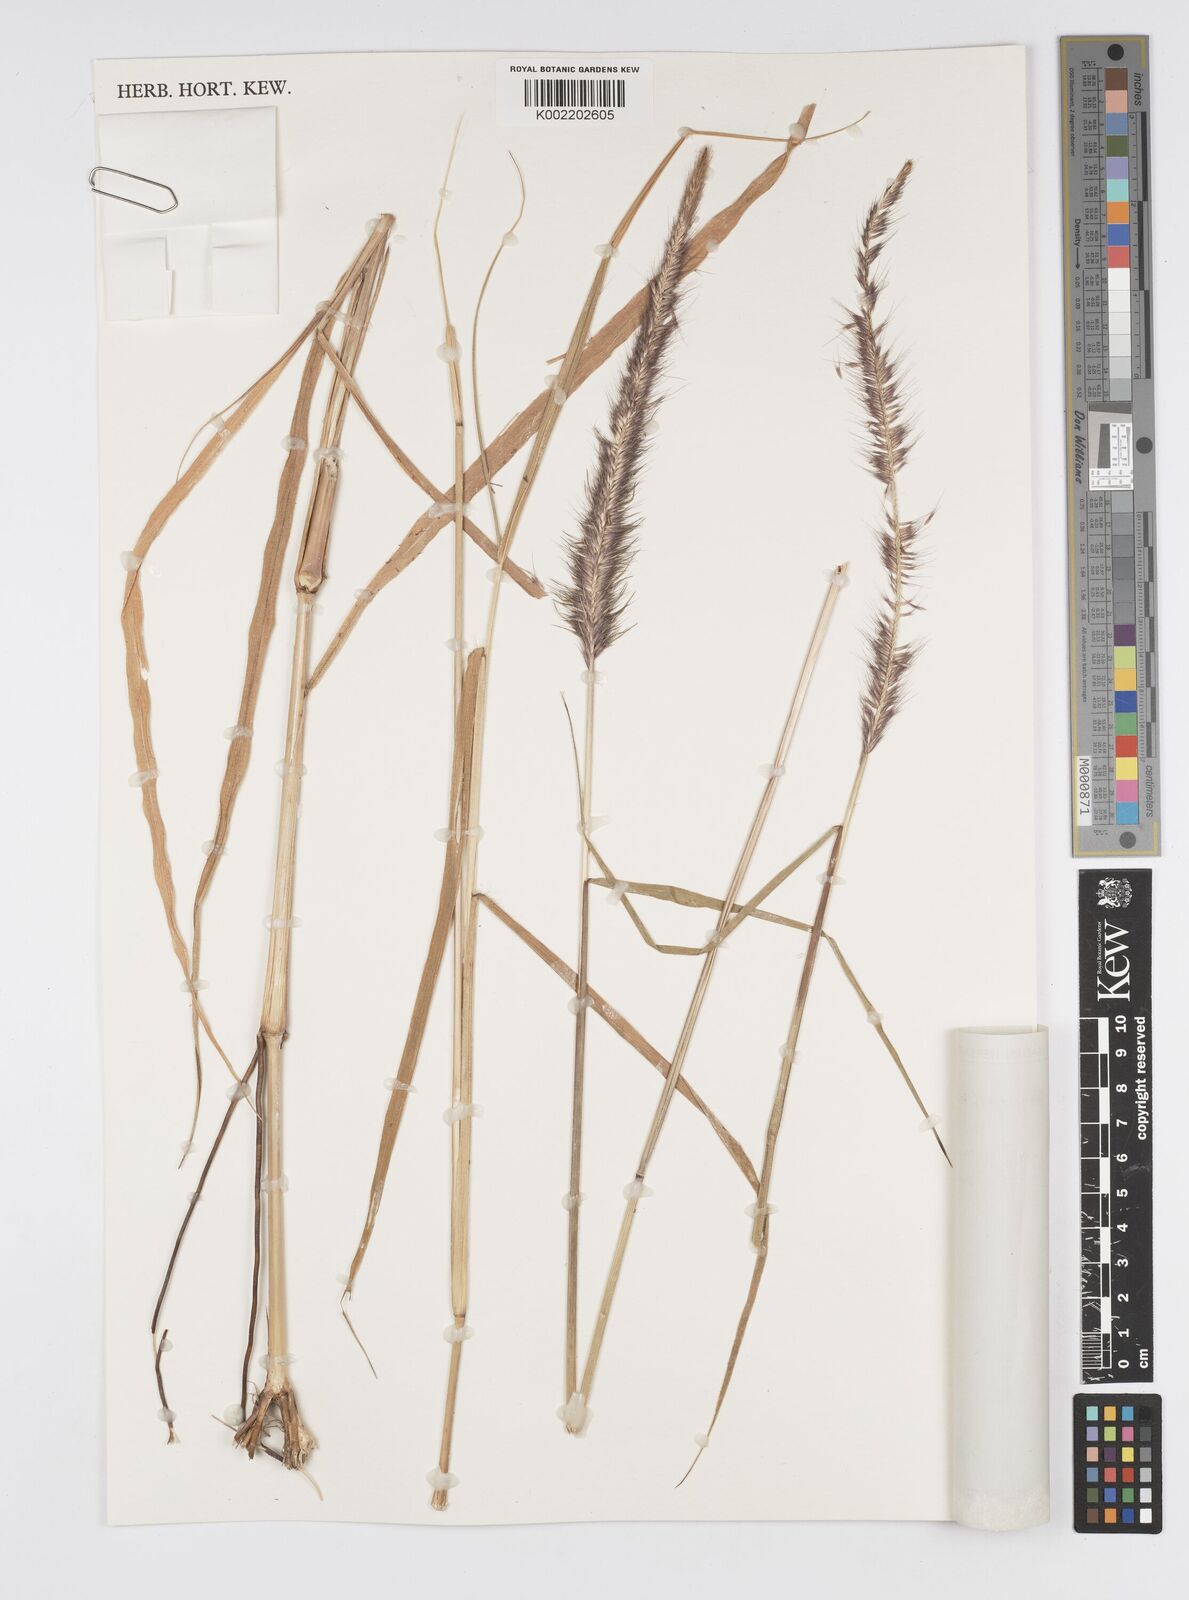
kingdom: Plantae
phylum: Tracheophyta
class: Liliopsida
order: Poales
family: Poaceae
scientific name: Poaceae
